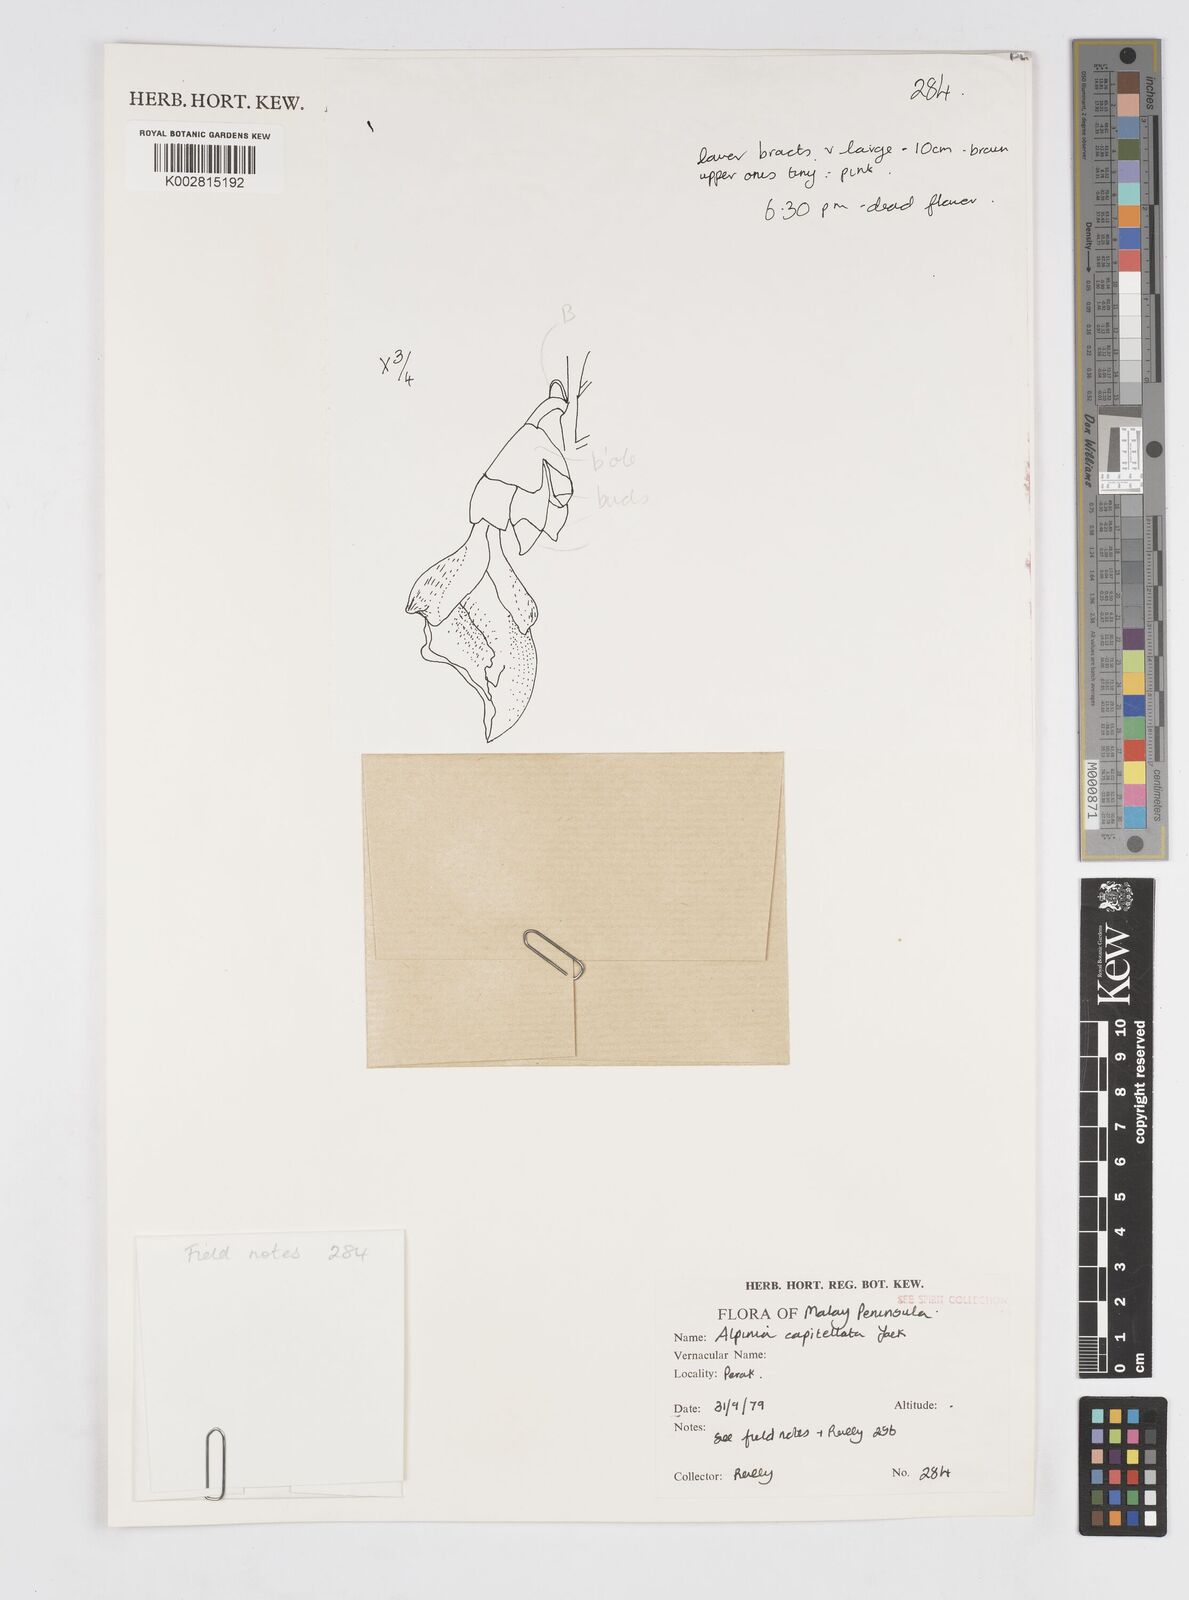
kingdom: Plantae
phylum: Tracheophyta
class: Liliopsida
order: Zingiberales
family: Zingiberaceae
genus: Alpinia
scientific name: Alpinia capitellata
